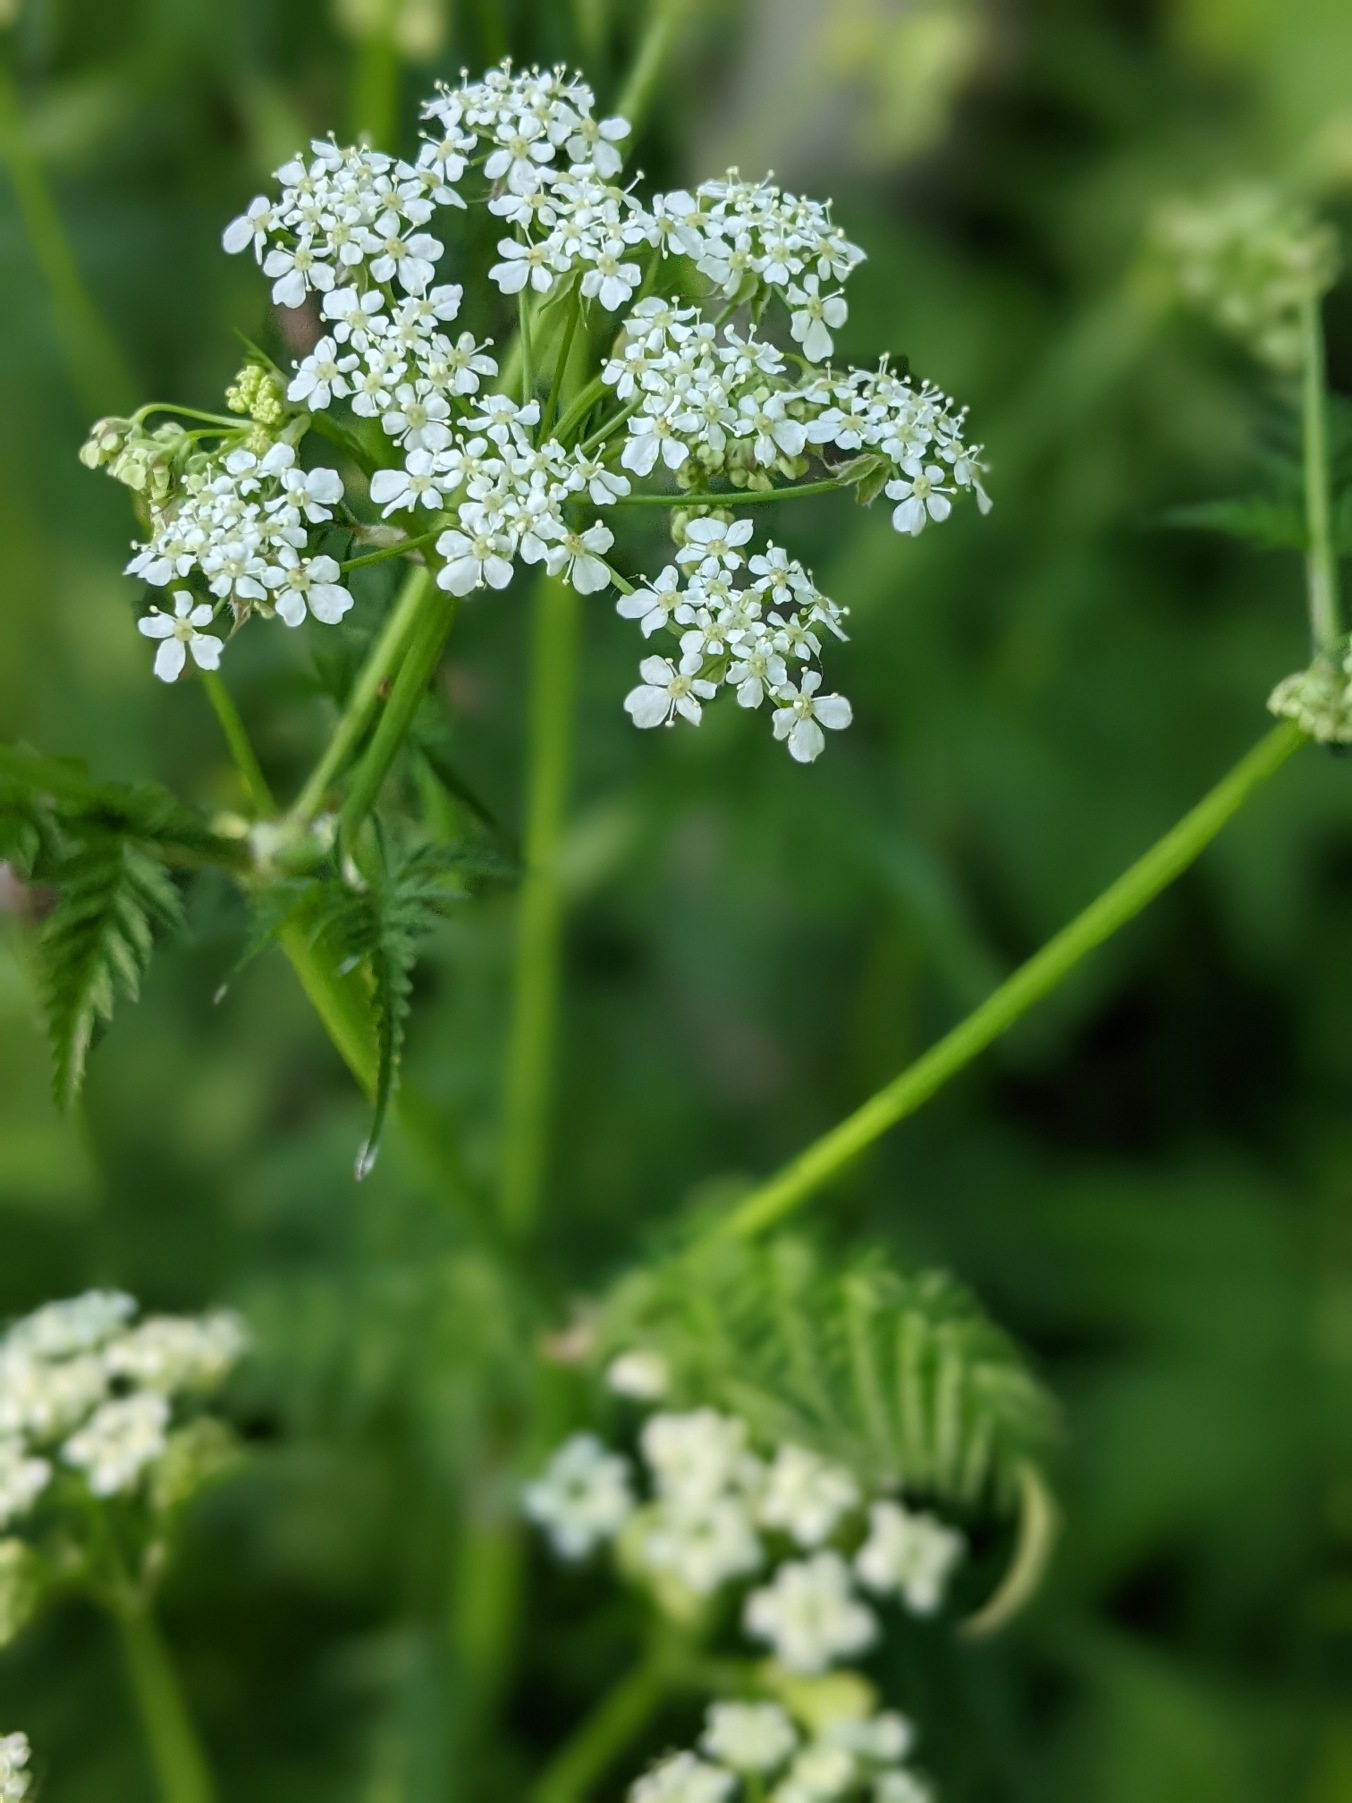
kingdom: Plantae
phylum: Tracheophyta
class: Magnoliopsida
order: Apiales
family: Apiaceae
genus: Anthriscus
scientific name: Anthriscus sylvestris
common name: Vild kørvel
